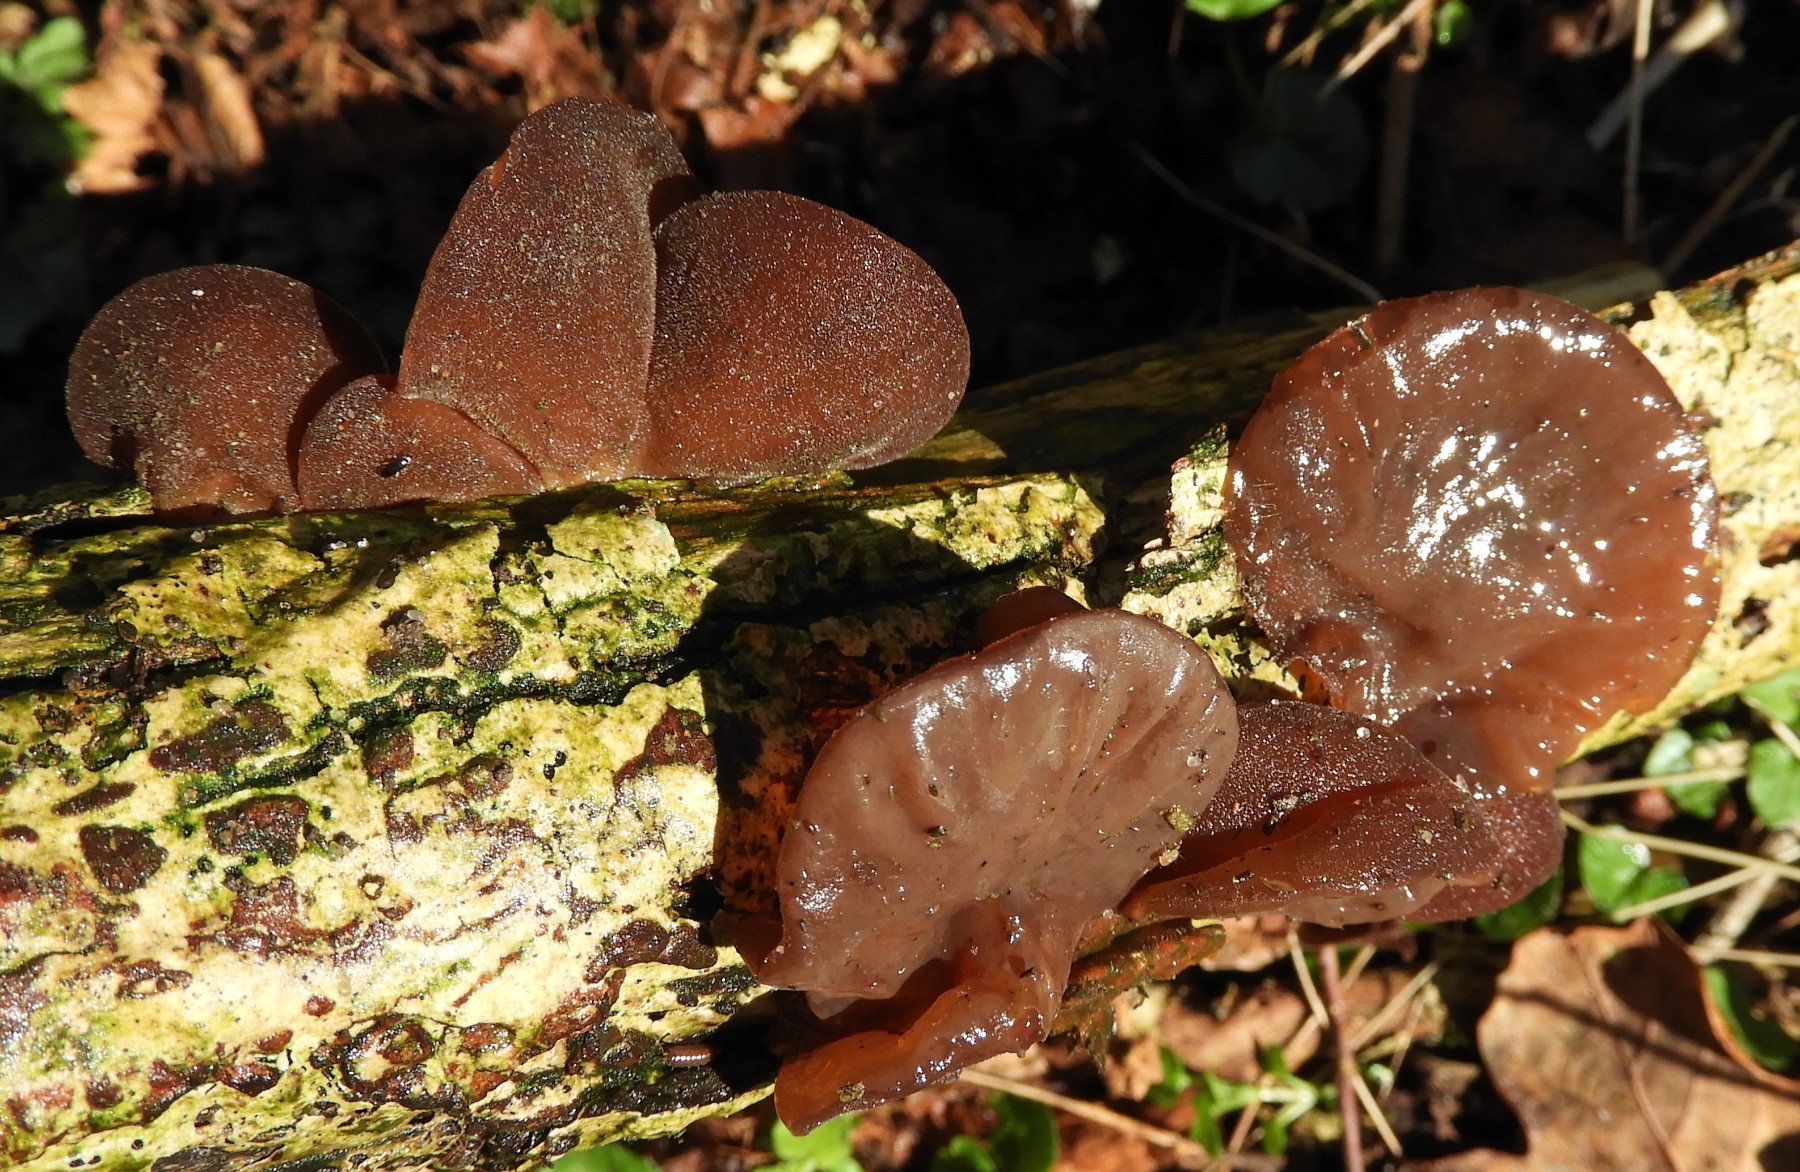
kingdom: Fungi
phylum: Basidiomycota
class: Agaricomycetes
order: Auriculariales
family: Auriculariaceae
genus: Auricularia
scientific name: Auricularia auricula-judae
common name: almindelig judasøre
